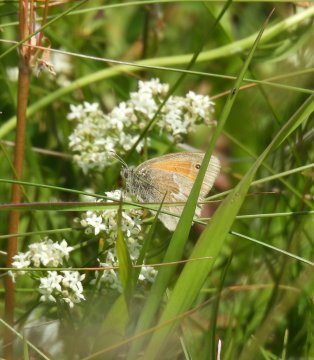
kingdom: Animalia
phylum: Arthropoda
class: Insecta
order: Lepidoptera
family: Nymphalidae
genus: Coenonympha
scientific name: Coenonympha tullia
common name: Large Heath
